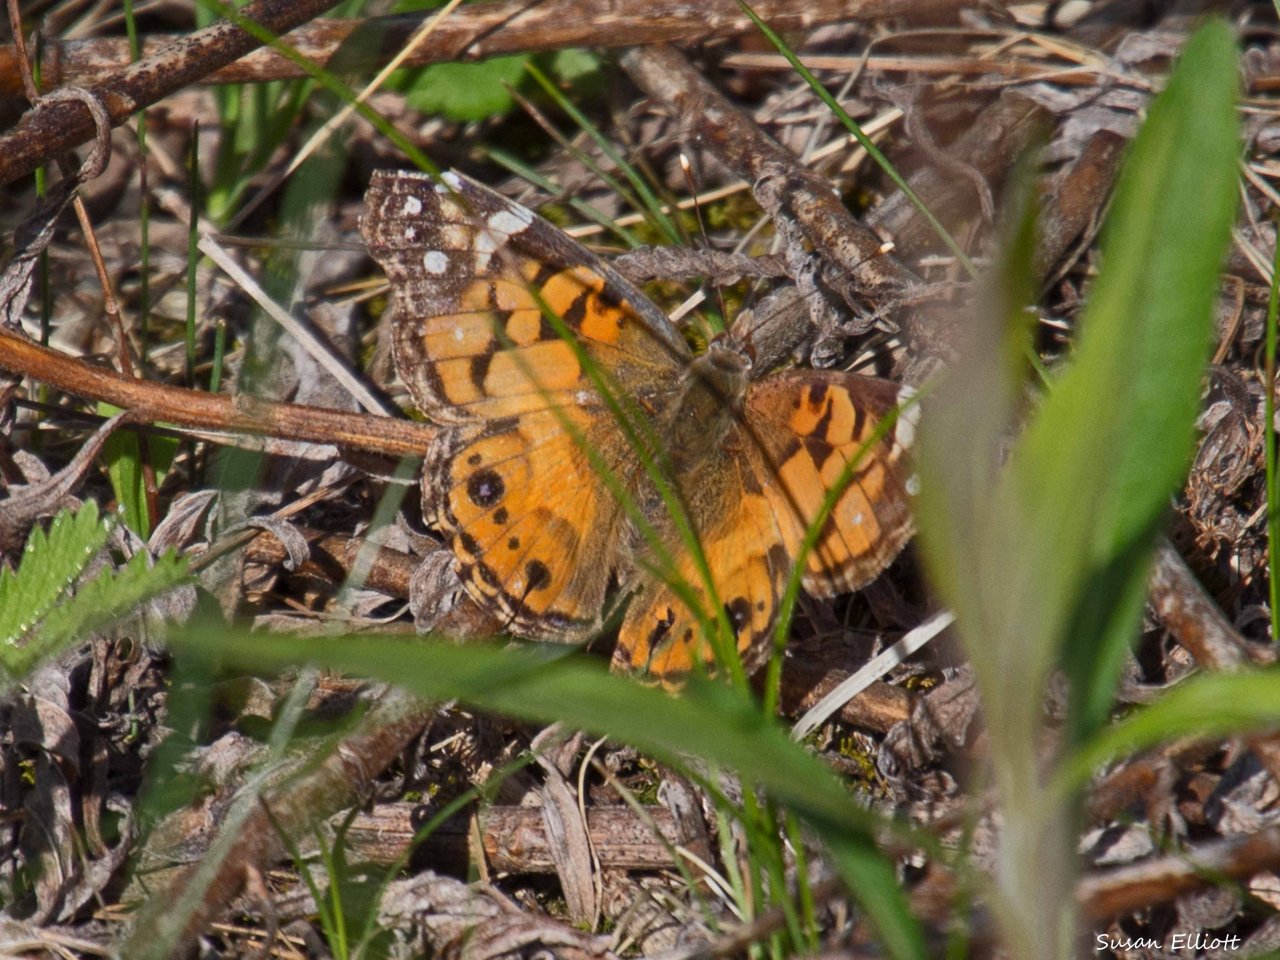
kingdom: Animalia
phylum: Arthropoda
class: Insecta
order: Lepidoptera
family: Nymphalidae
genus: Vanessa
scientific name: Vanessa virginiensis
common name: American Lady
